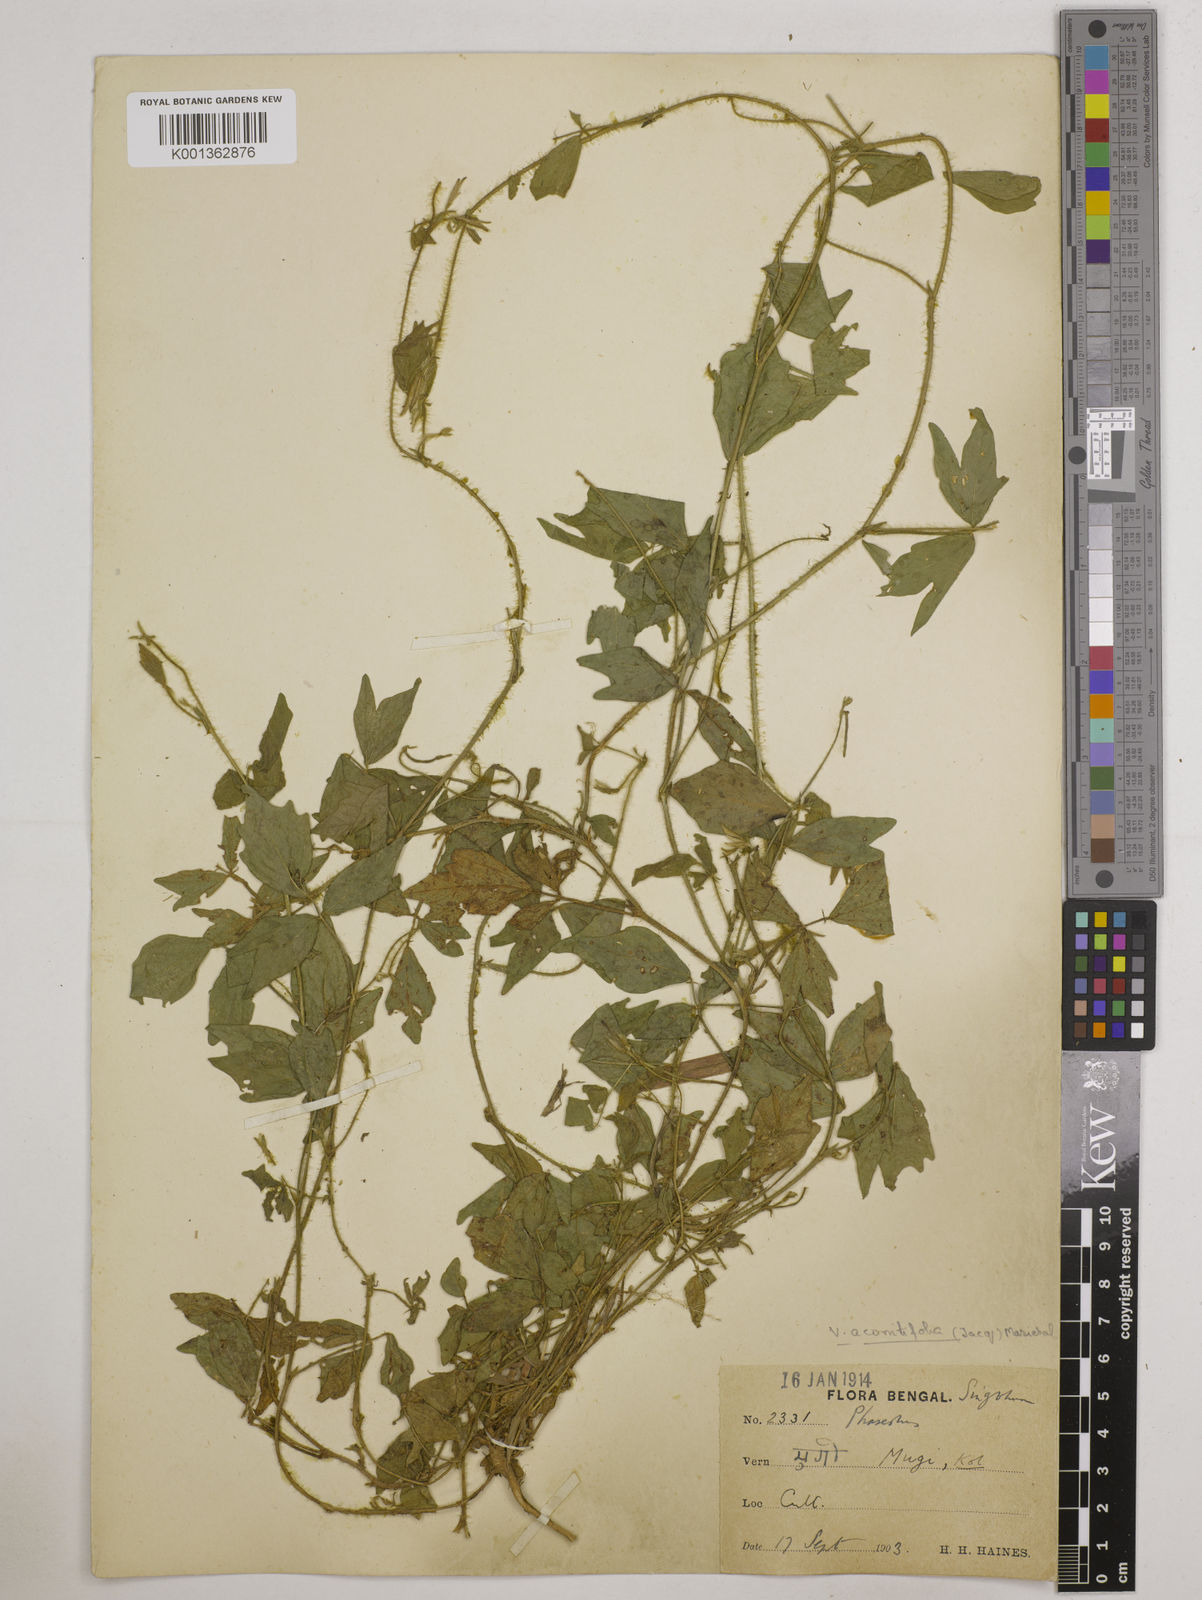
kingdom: Plantae
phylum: Tracheophyta
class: Magnoliopsida
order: Fabales
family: Fabaceae
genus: Vigna
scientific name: Vigna aconitifolia
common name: Dew bean
